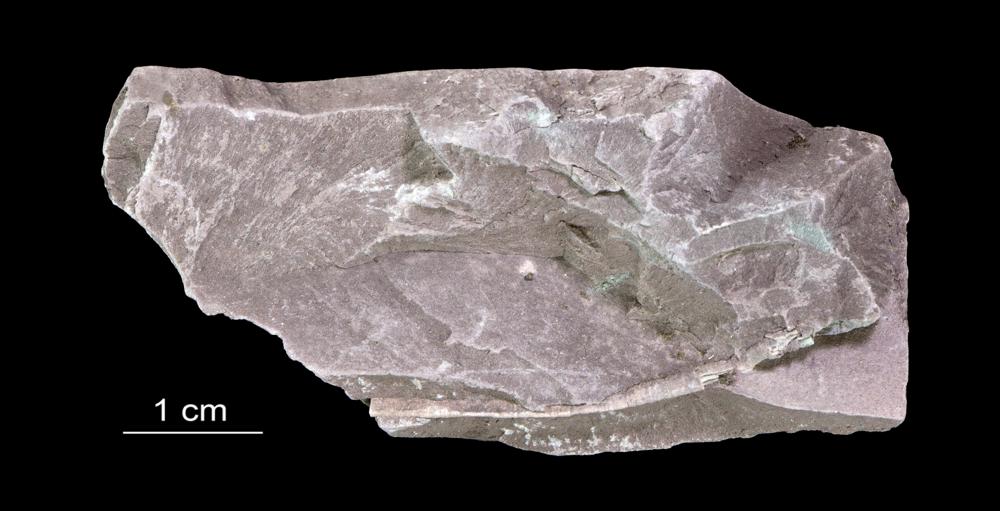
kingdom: Chromista
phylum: Foraminifera
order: Astrorhizida
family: Hyperamminidae
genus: Platysolenites
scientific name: Platysolenites antiquissimus
